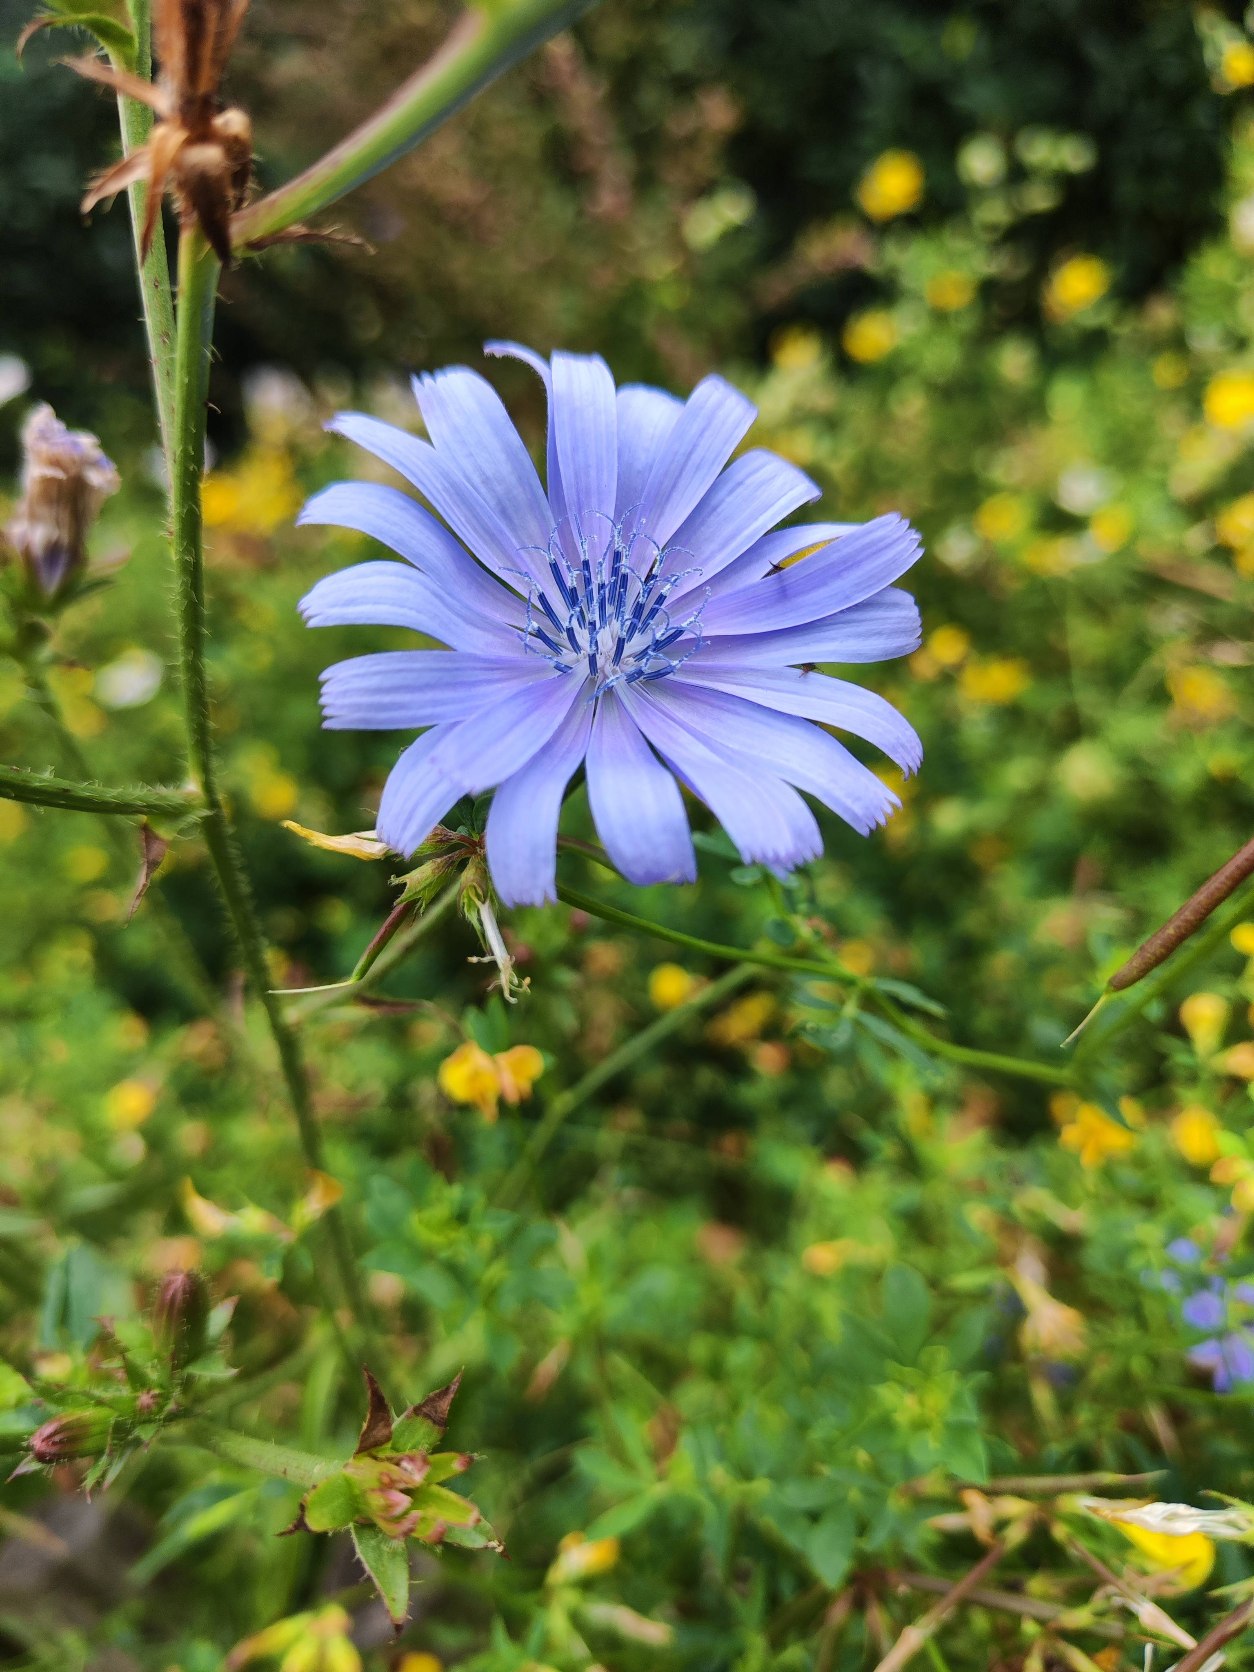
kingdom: Plantae
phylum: Tracheophyta
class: Magnoliopsida
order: Asterales
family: Asteraceae
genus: Cichorium
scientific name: Cichorium intybus
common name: Cikorie
